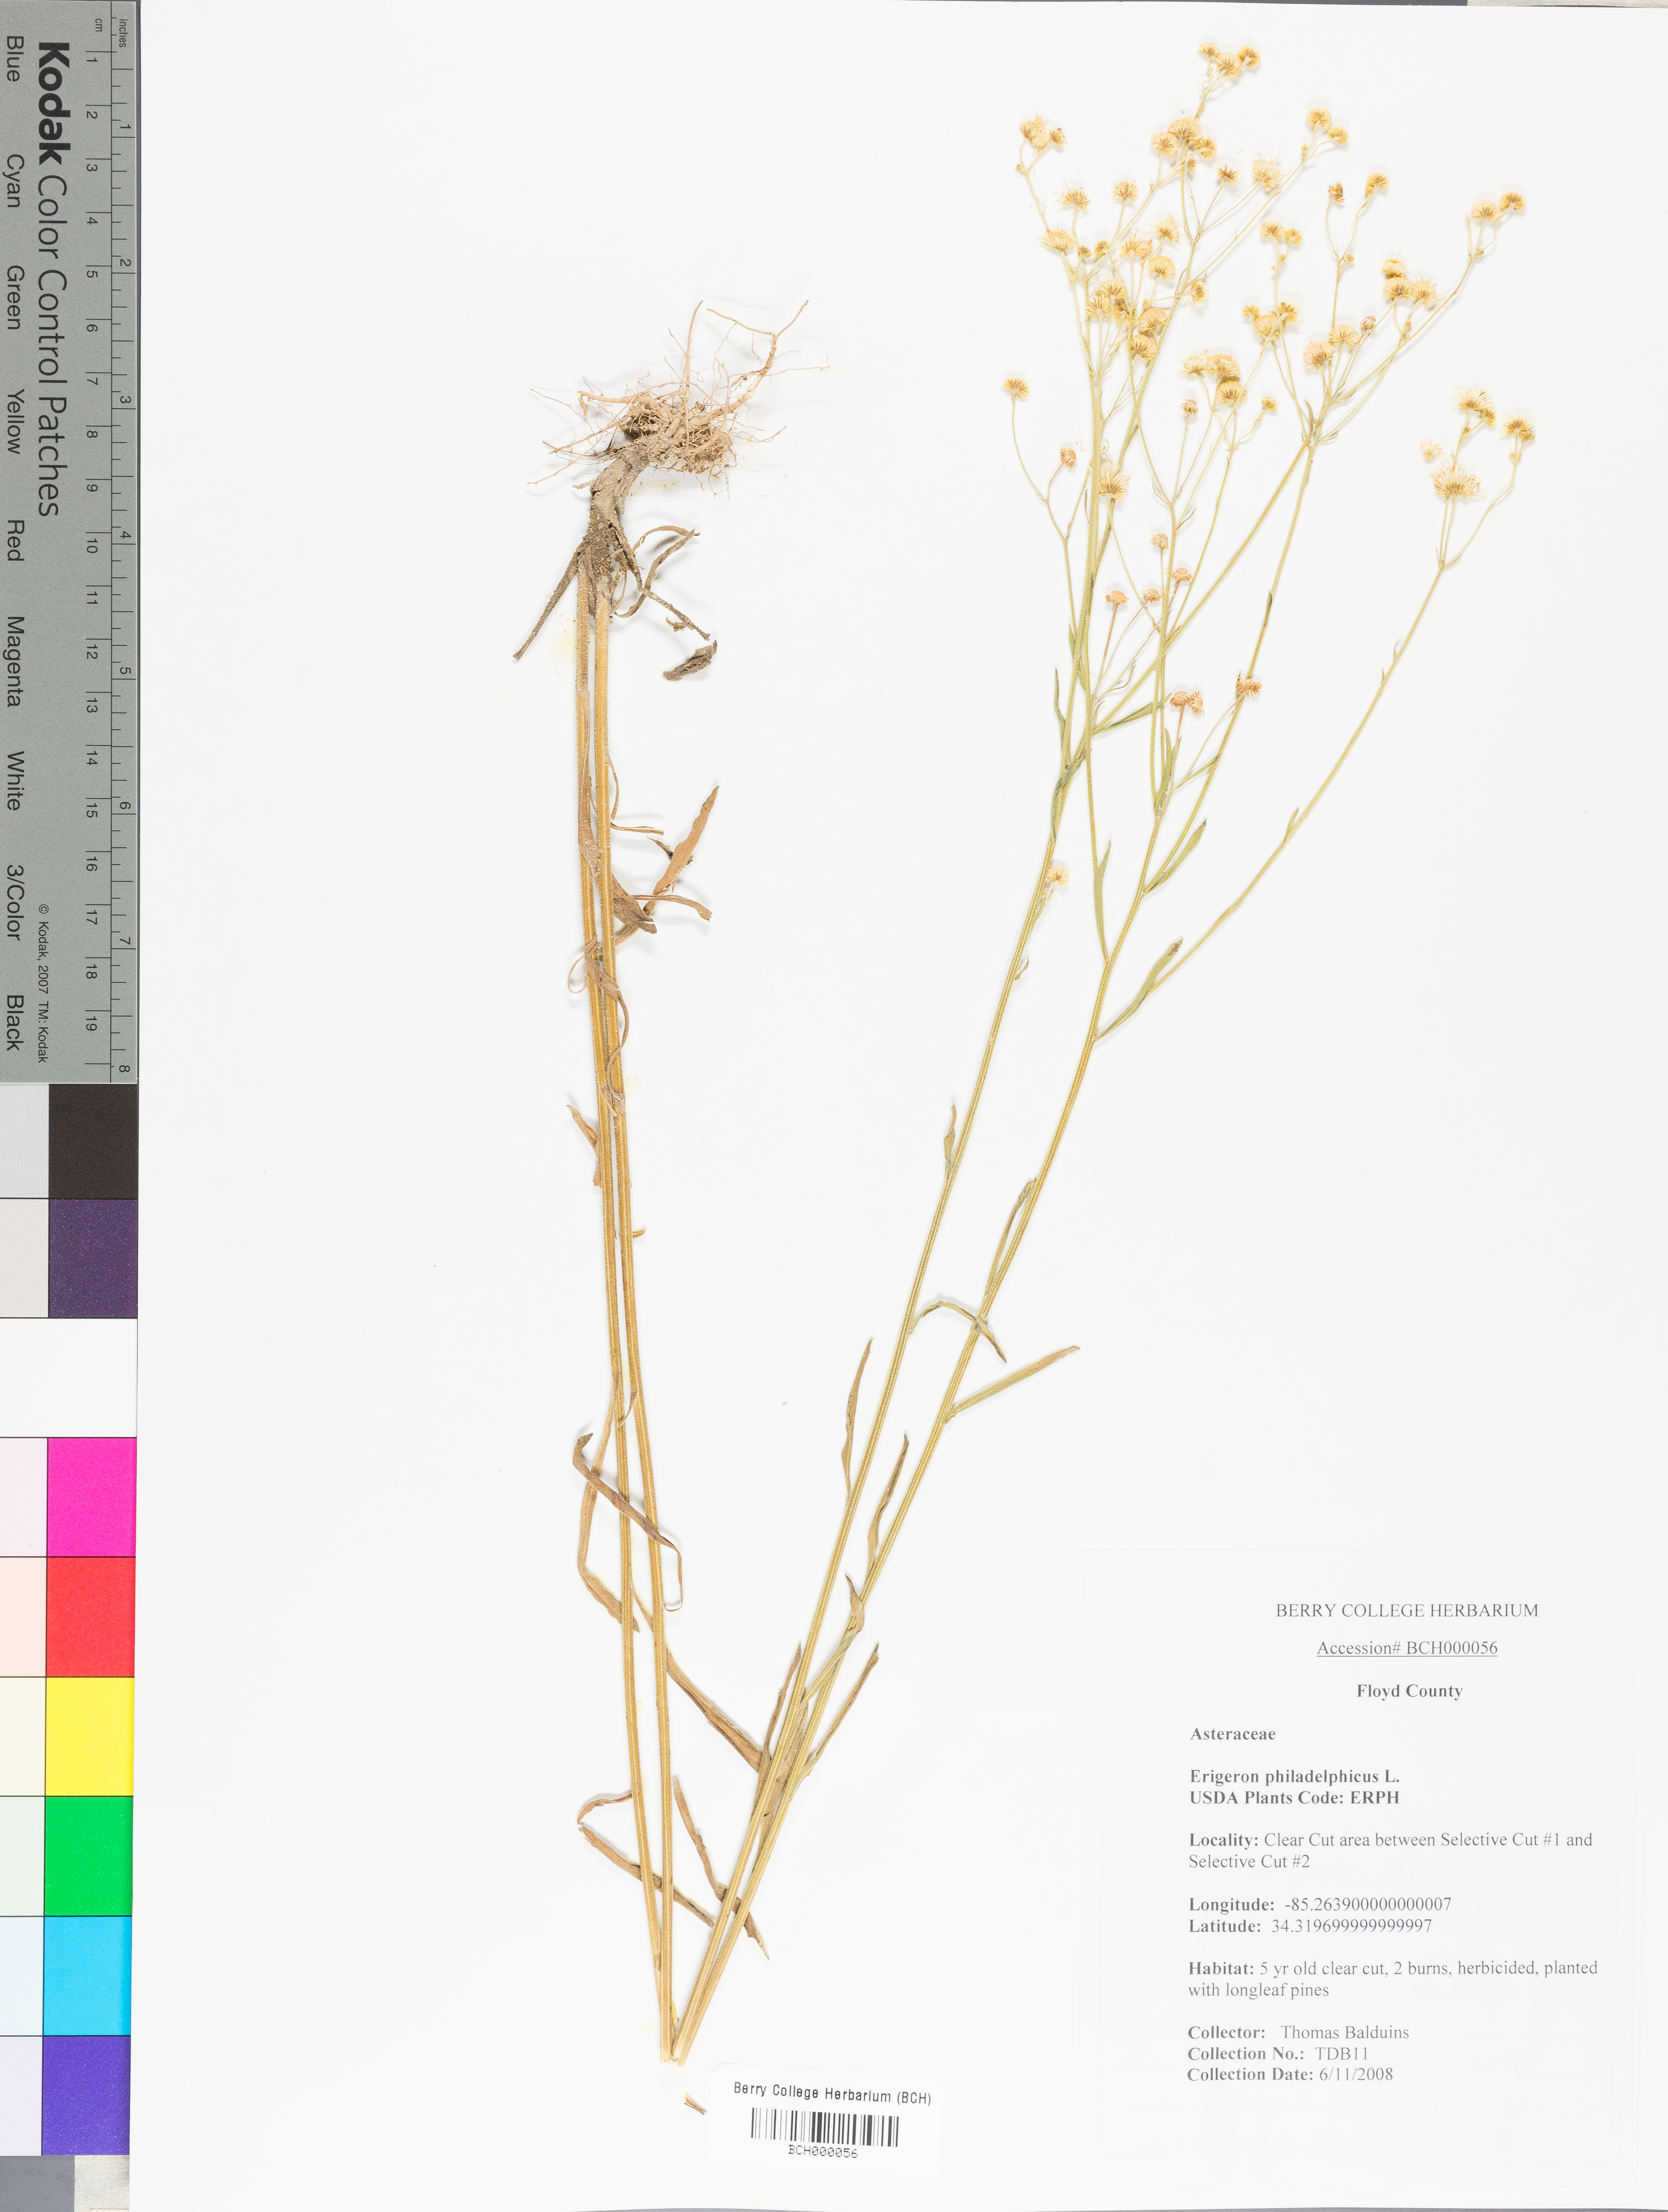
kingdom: Plantae
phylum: Tracheophyta
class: Magnoliopsida
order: Asterales
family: Asteraceae
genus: Erigeron
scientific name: Erigeron philadelphicus
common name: Robin's-plantain
